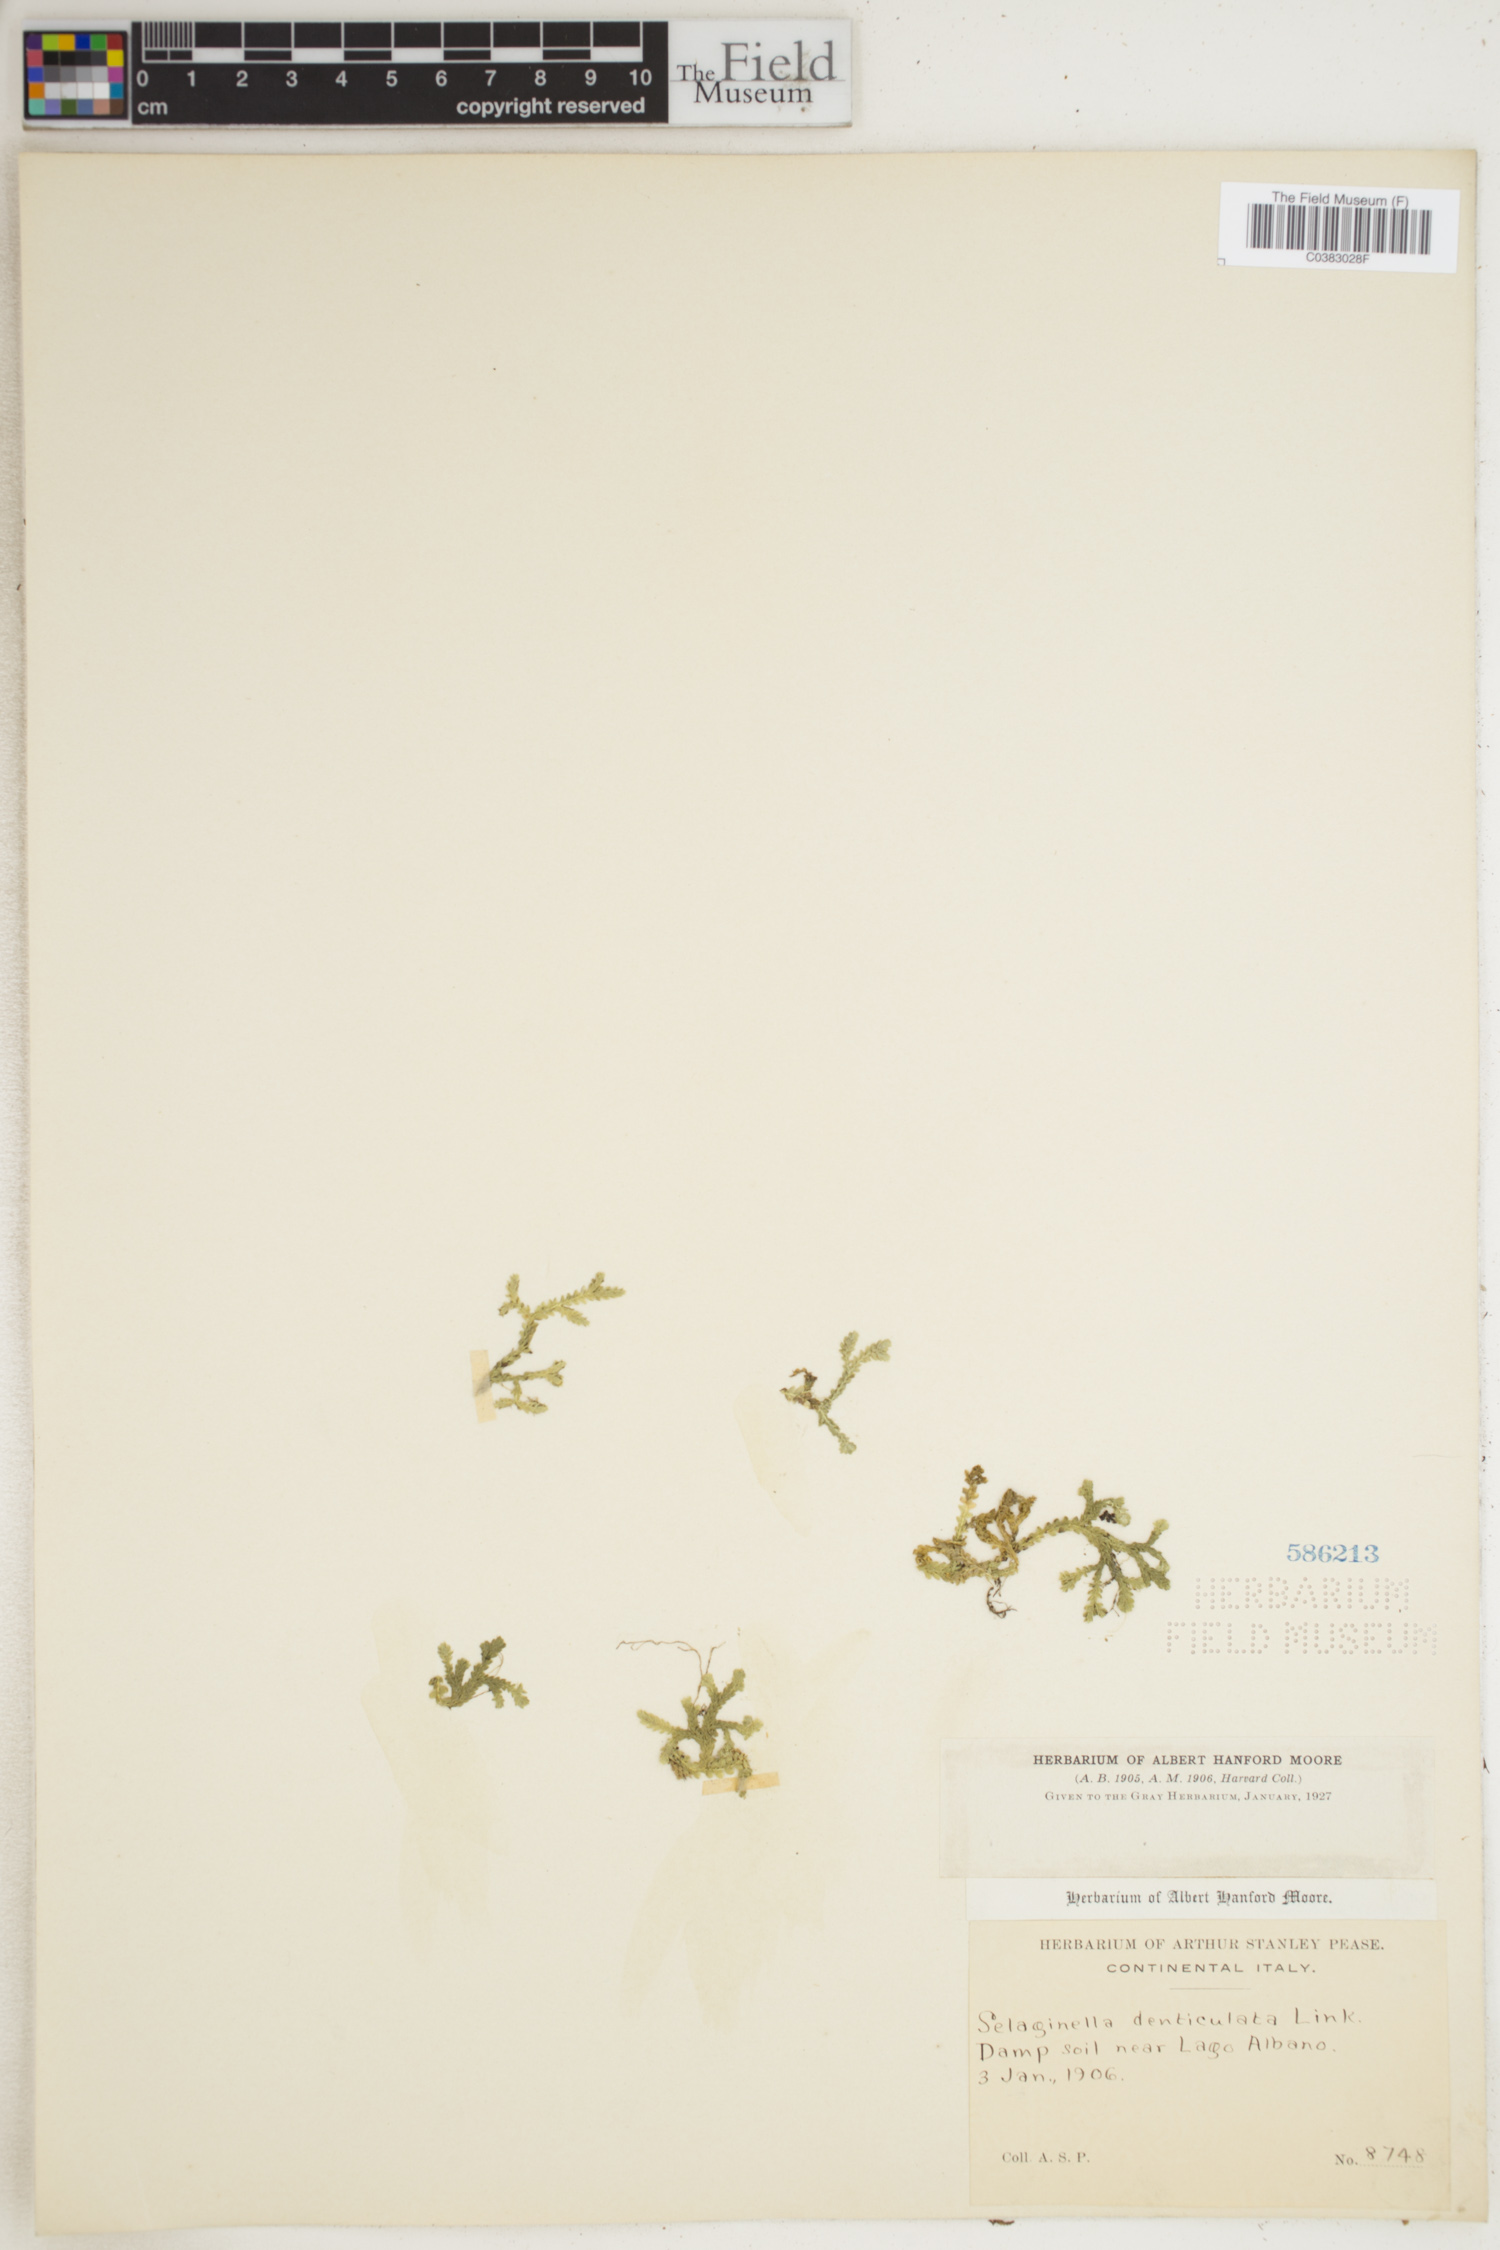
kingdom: Plantae
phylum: Tracheophyta
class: Lycopodiopsida
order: Selaginellales
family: Selaginellaceae
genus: Selaginella
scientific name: Selaginella denticulata
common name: Toothed-leaved clubmoss
